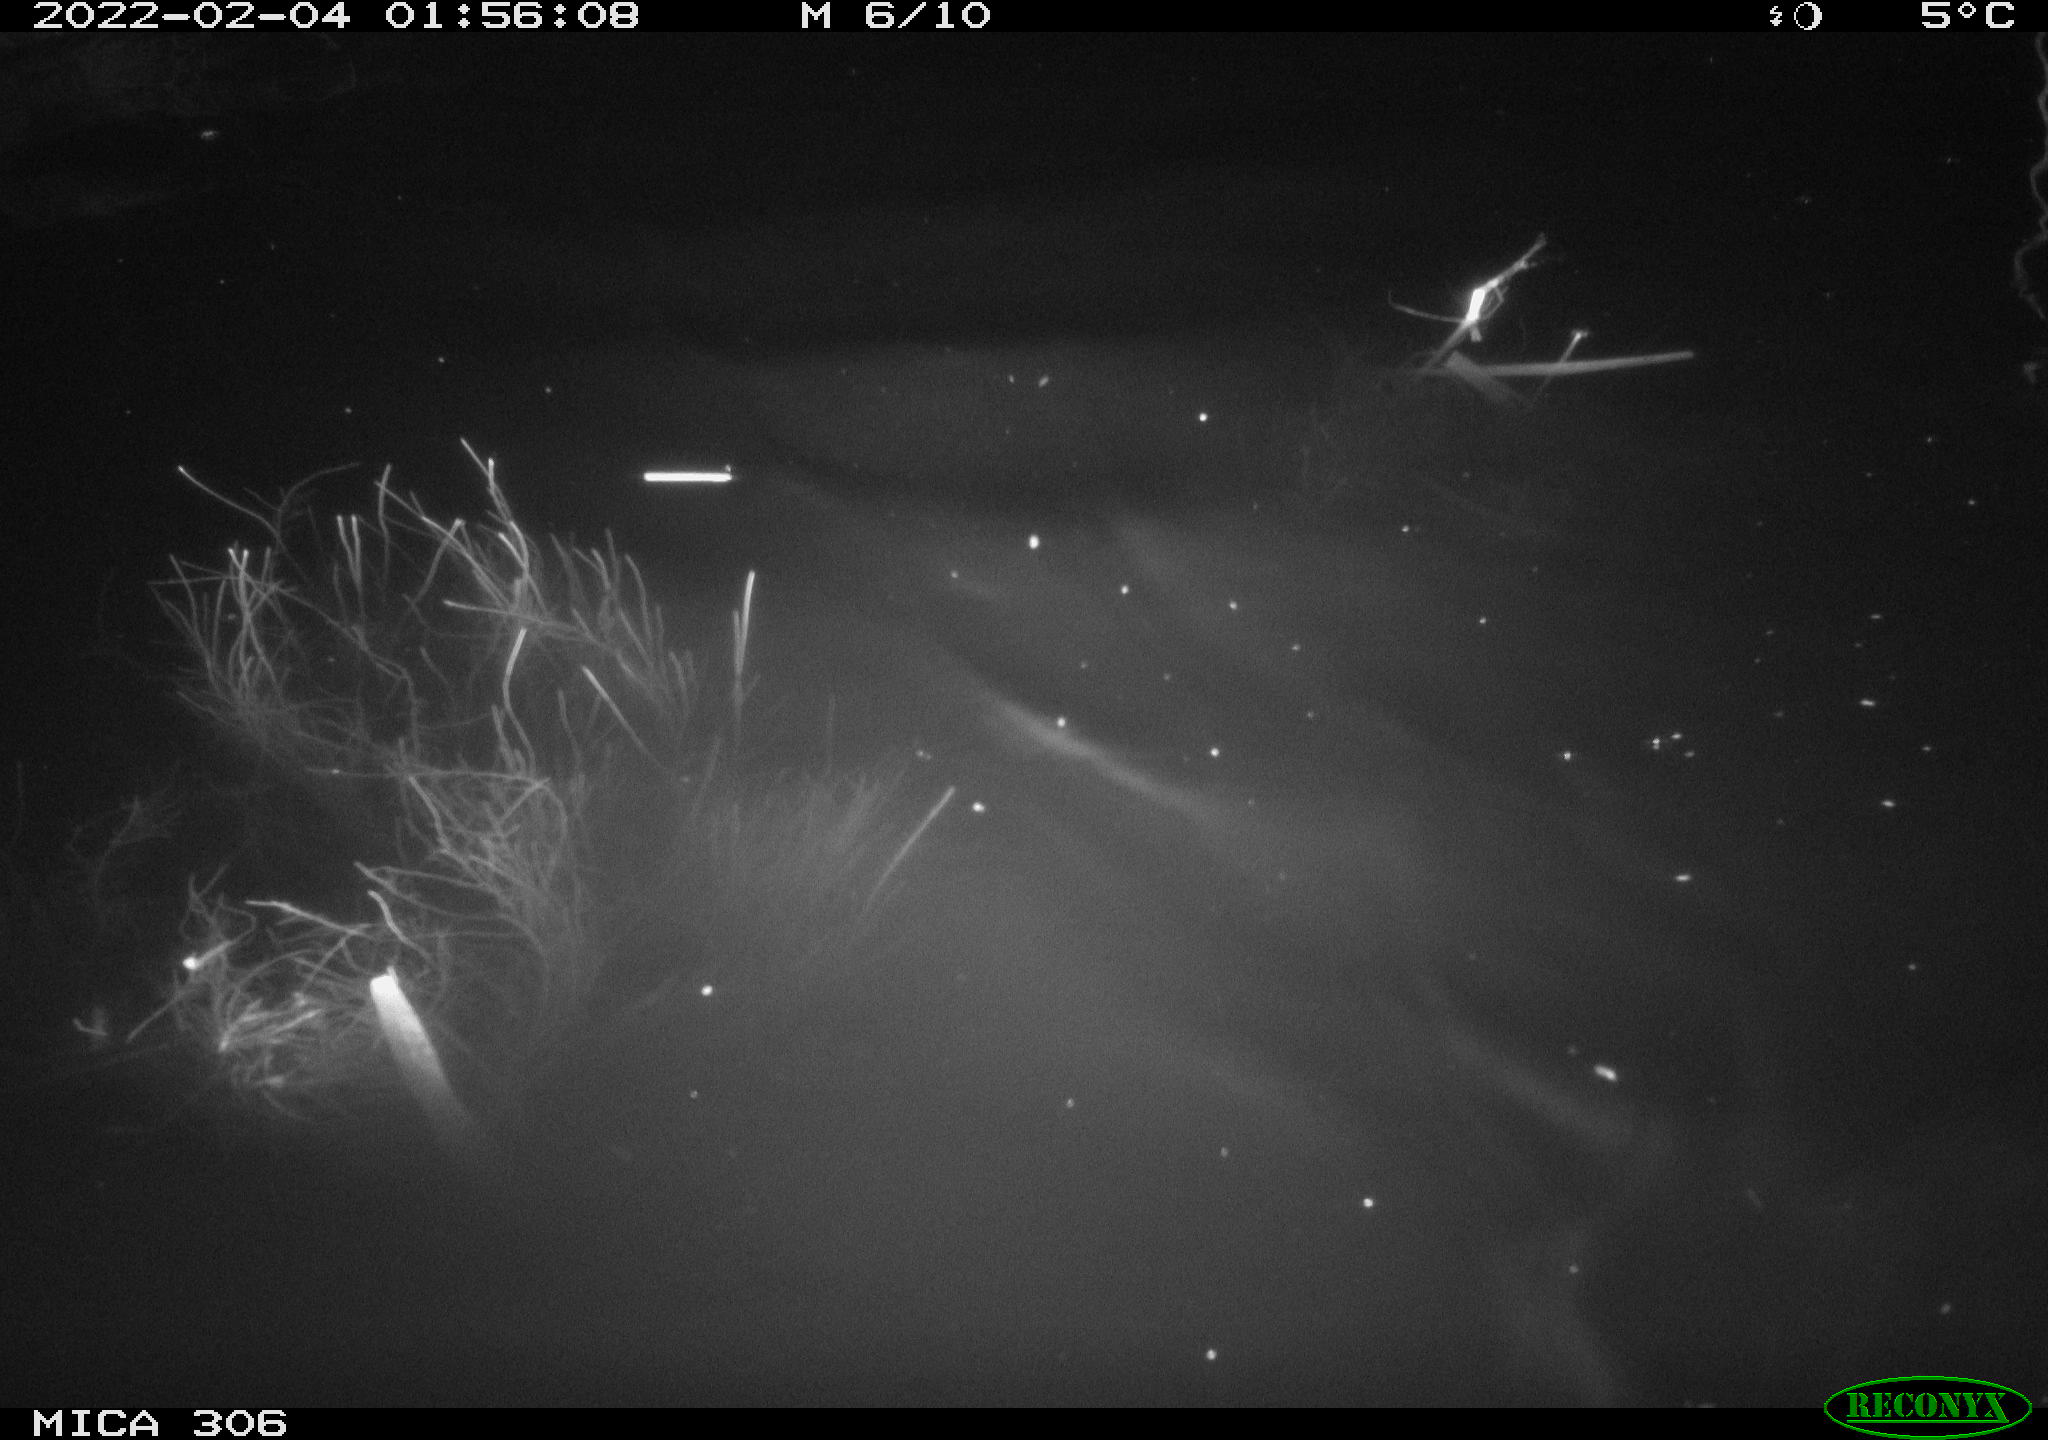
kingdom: Animalia
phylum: Chordata
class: Mammalia
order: Rodentia
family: Cricetidae
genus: Ondatra
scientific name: Ondatra zibethicus
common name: Muskrat
